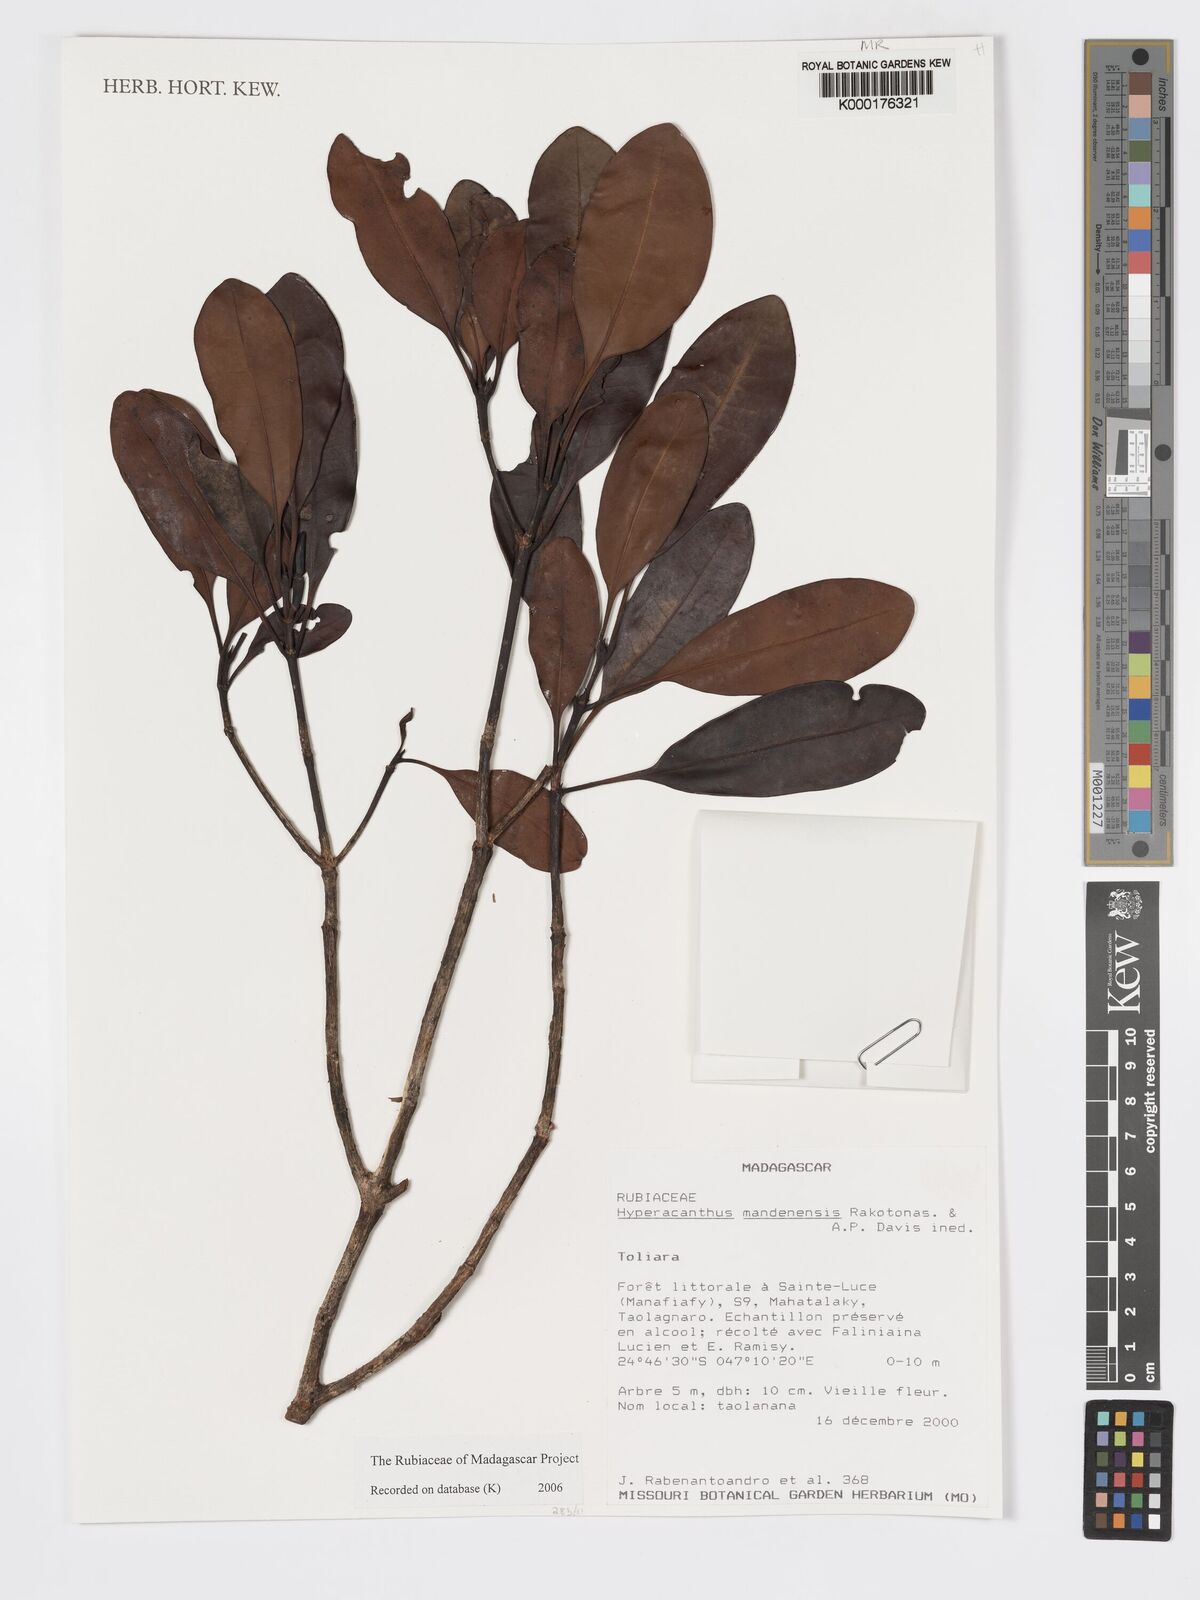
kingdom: Plantae
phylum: Tracheophyta
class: Magnoliopsida
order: Gentianales
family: Rubiaceae
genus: Hyperacanthus
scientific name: Hyperacanthus mandenensis
